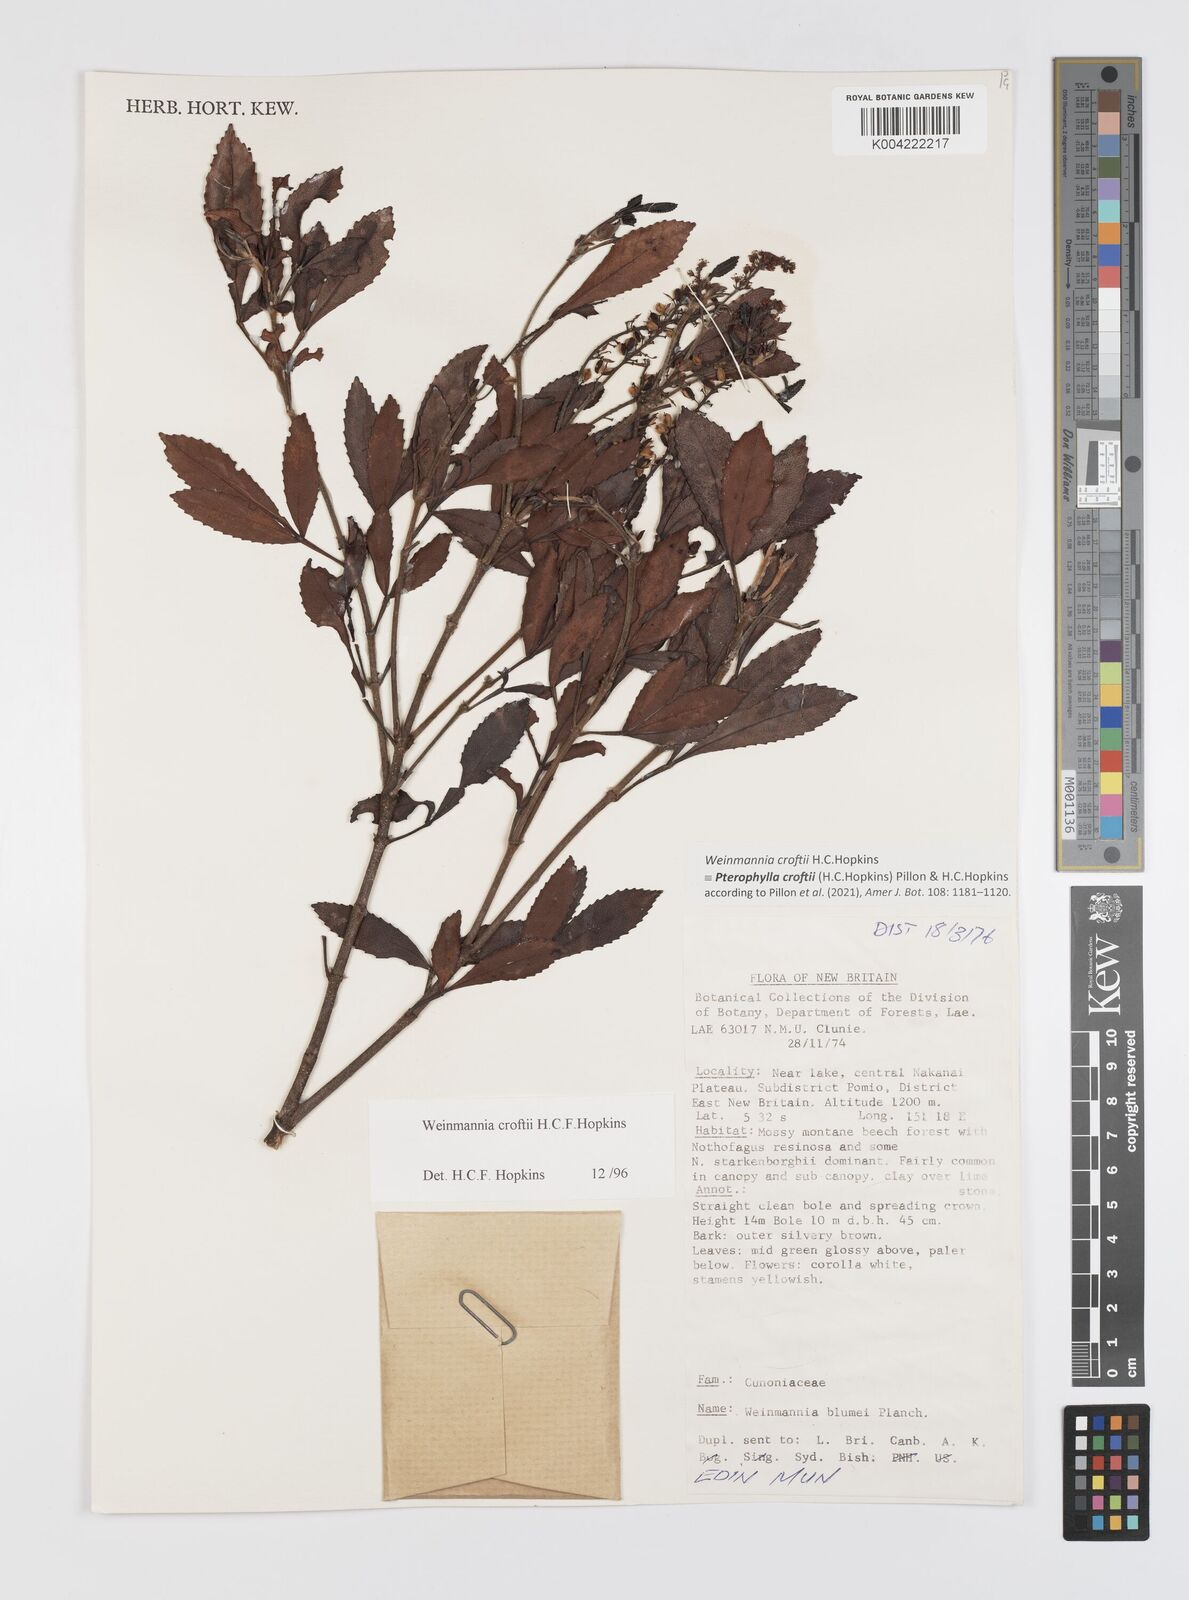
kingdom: Plantae
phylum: Tracheophyta
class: Magnoliopsida
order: Oxalidales
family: Cunoniaceae
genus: Pterophylla
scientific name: Pterophylla croftii
